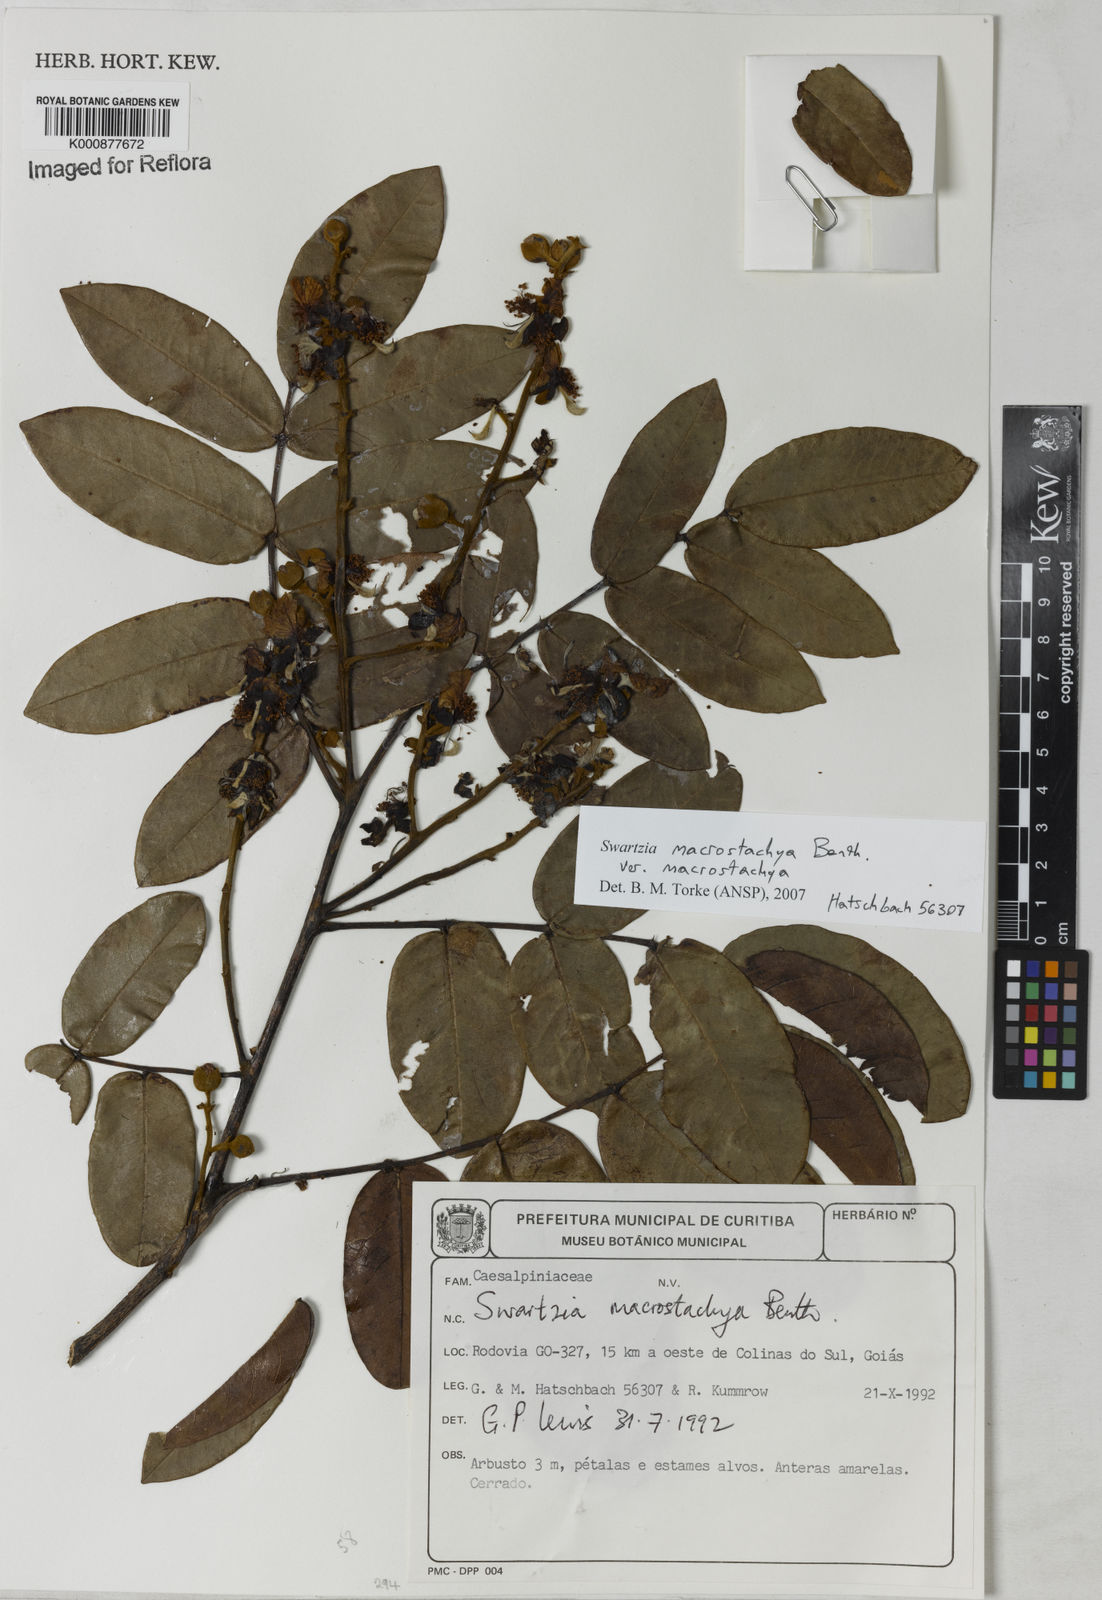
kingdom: Plantae
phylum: Tracheophyta
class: Magnoliopsida
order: Fabales
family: Fabaceae
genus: Swartzia
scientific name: Swartzia macrostachya
